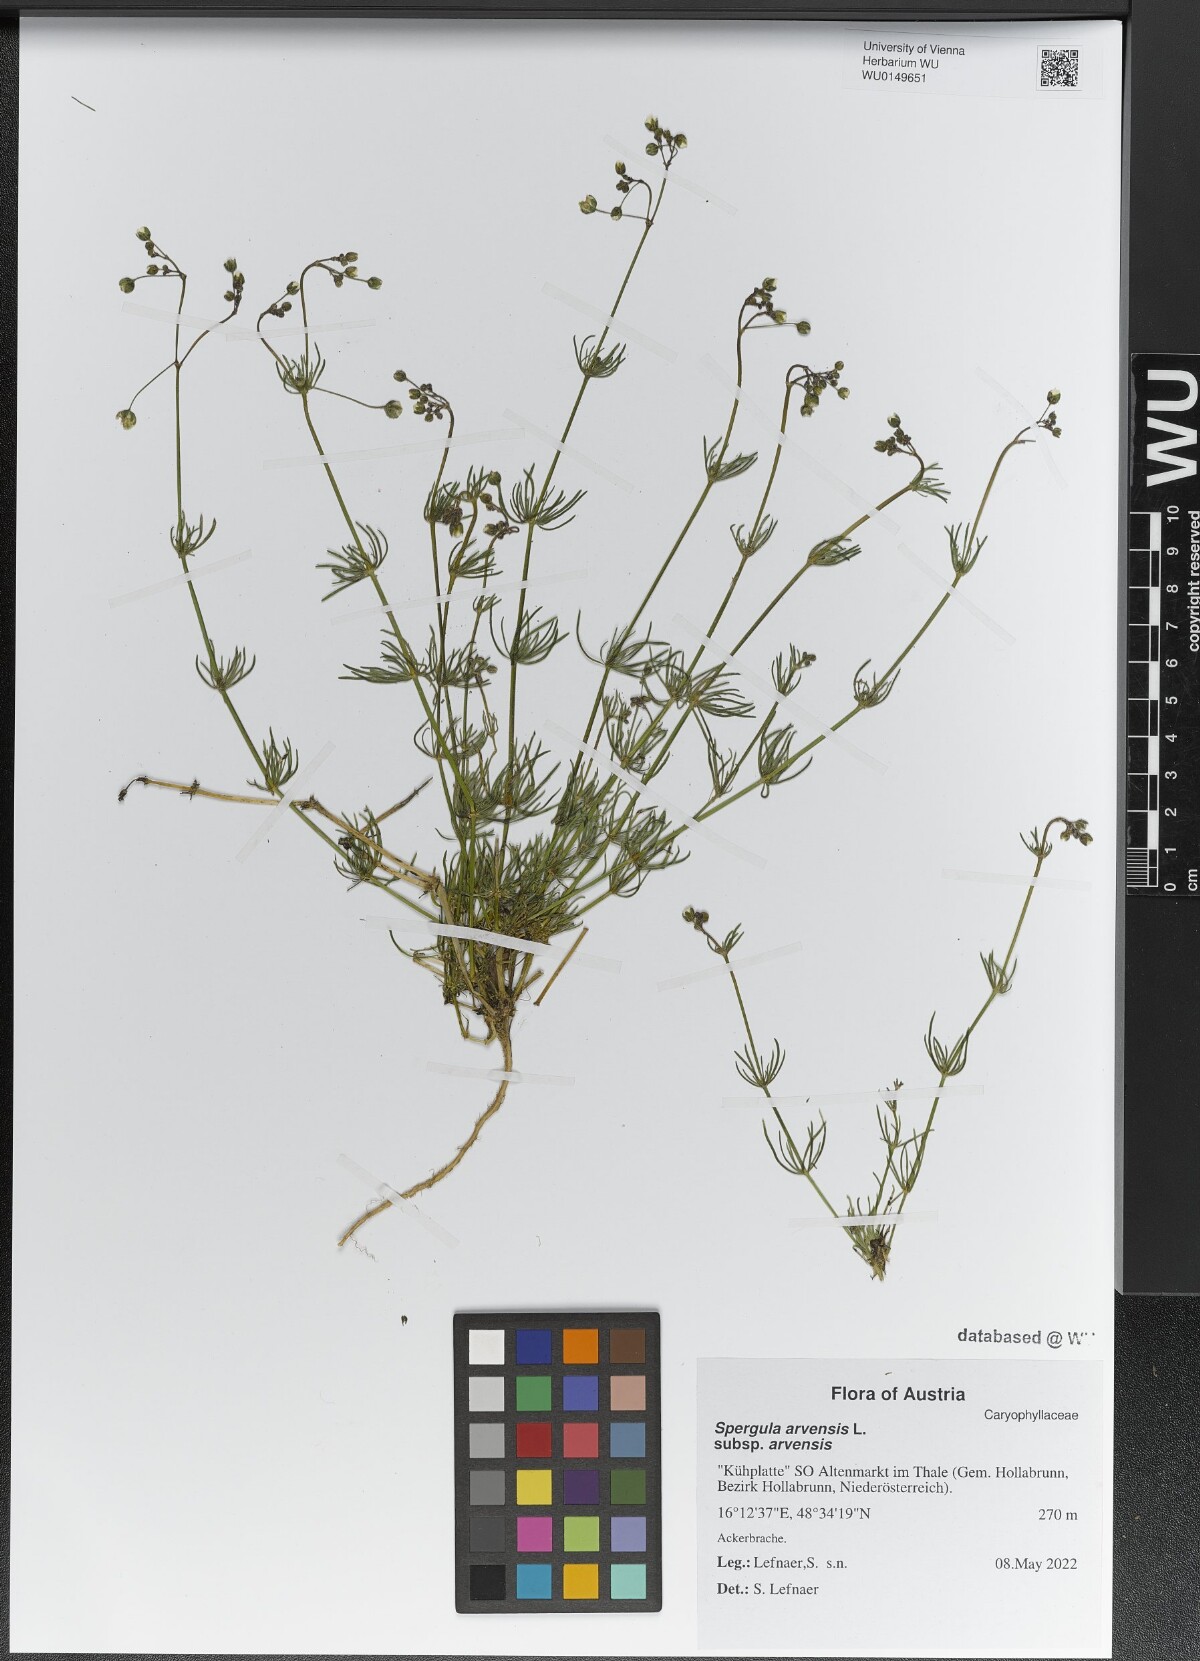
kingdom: Plantae
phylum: Tracheophyta
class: Magnoliopsida
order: Caryophyllales
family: Caryophyllaceae
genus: Spergula
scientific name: Spergula arvensis
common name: Corn spurrey
